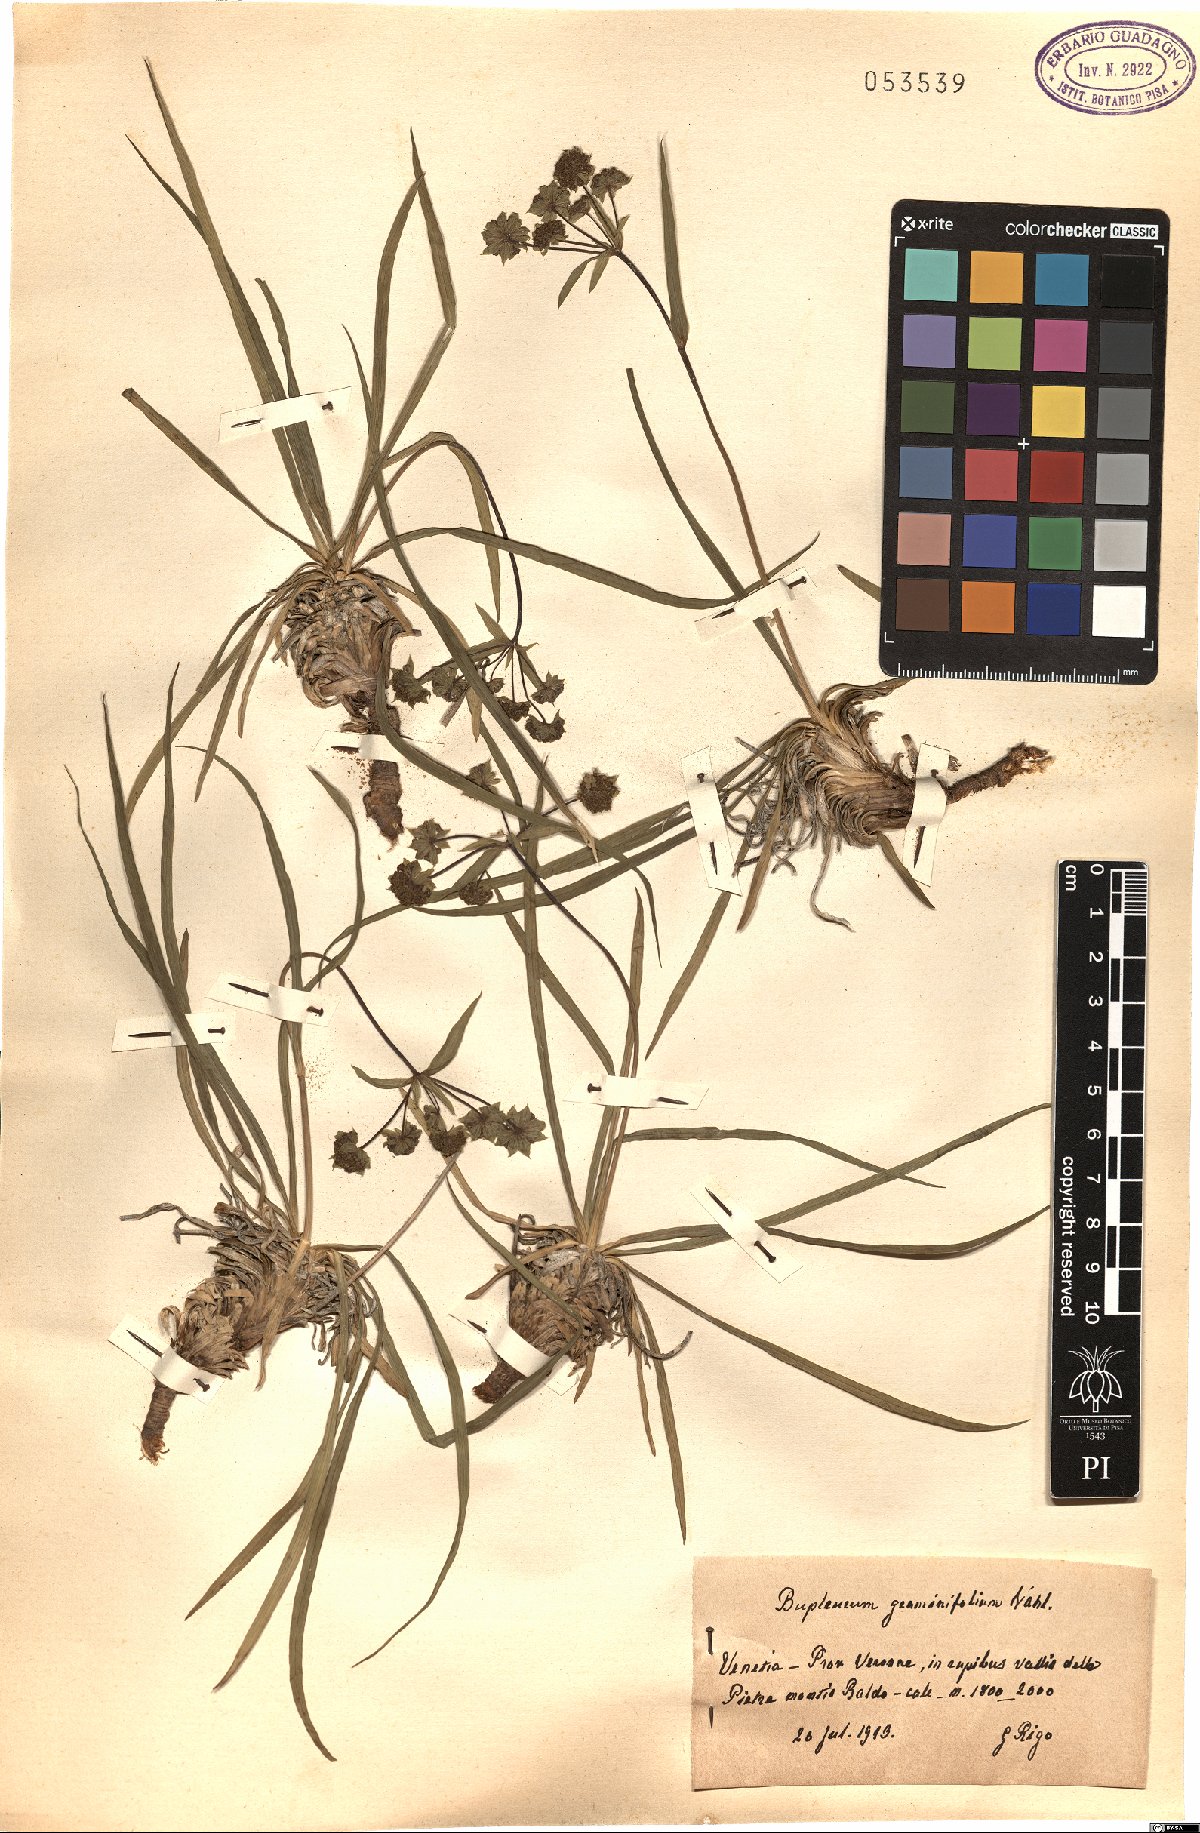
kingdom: Plantae
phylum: Tracheophyta
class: Magnoliopsida
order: Apiales
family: Apiaceae
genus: Bupleurum
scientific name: Bupleurum petraeum
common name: Rock hare's-ear
